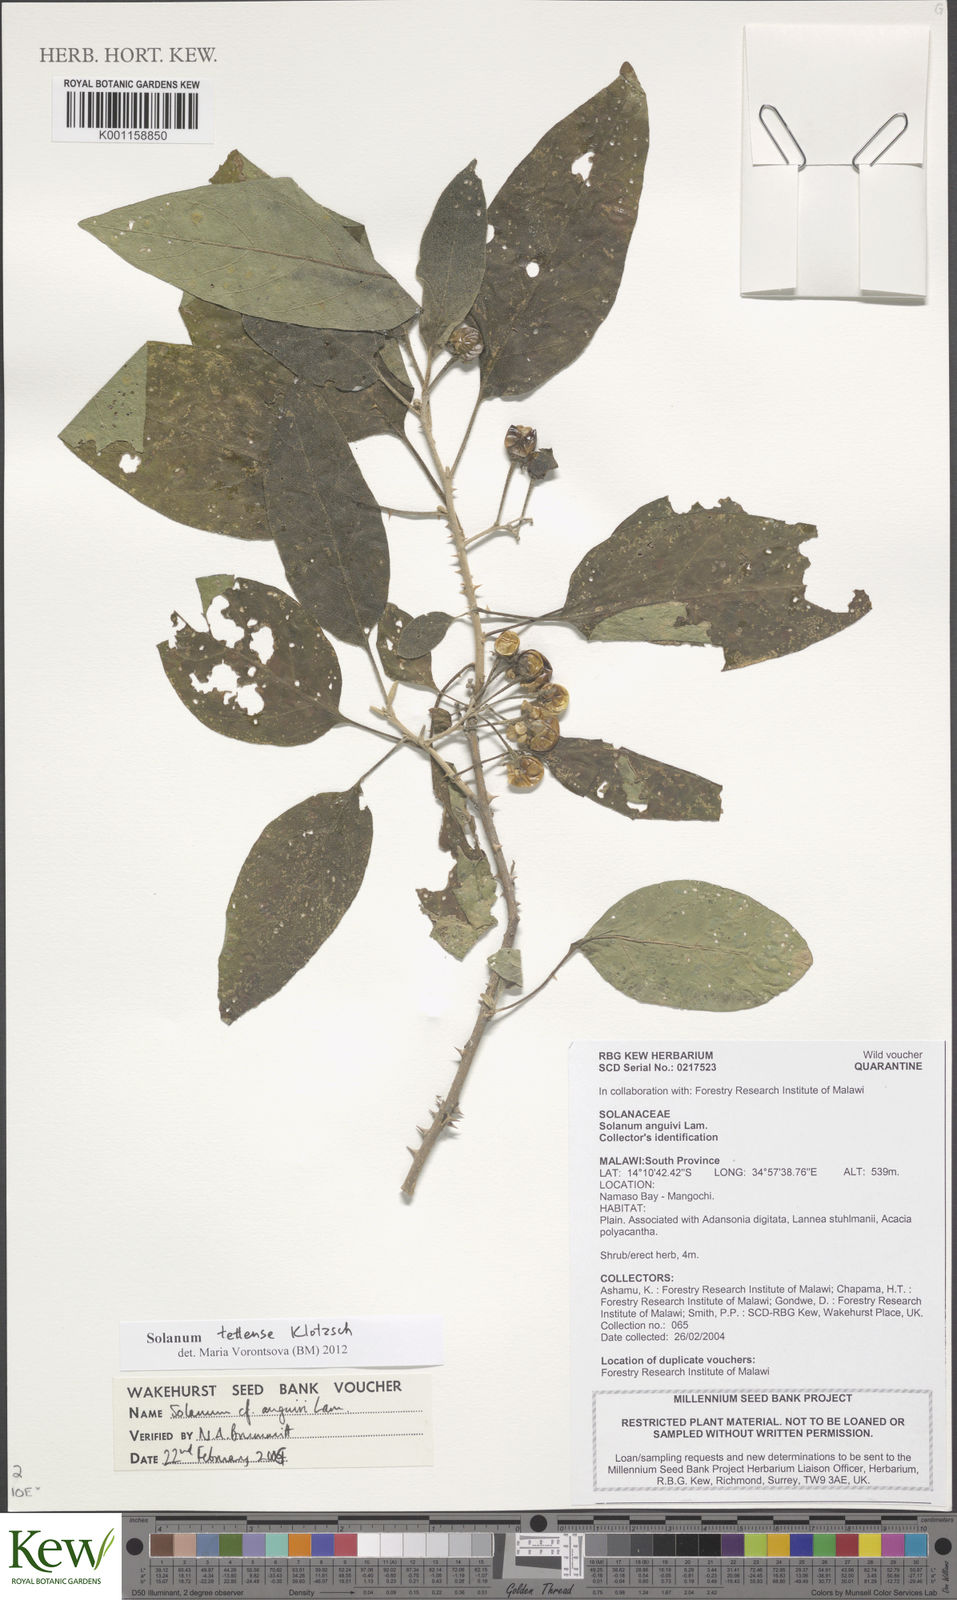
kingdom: Plantae
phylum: Tracheophyta
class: Magnoliopsida
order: Solanales
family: Solanaceae
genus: Solanum
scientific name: Solanum tettense
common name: Mozambique bitter apple
